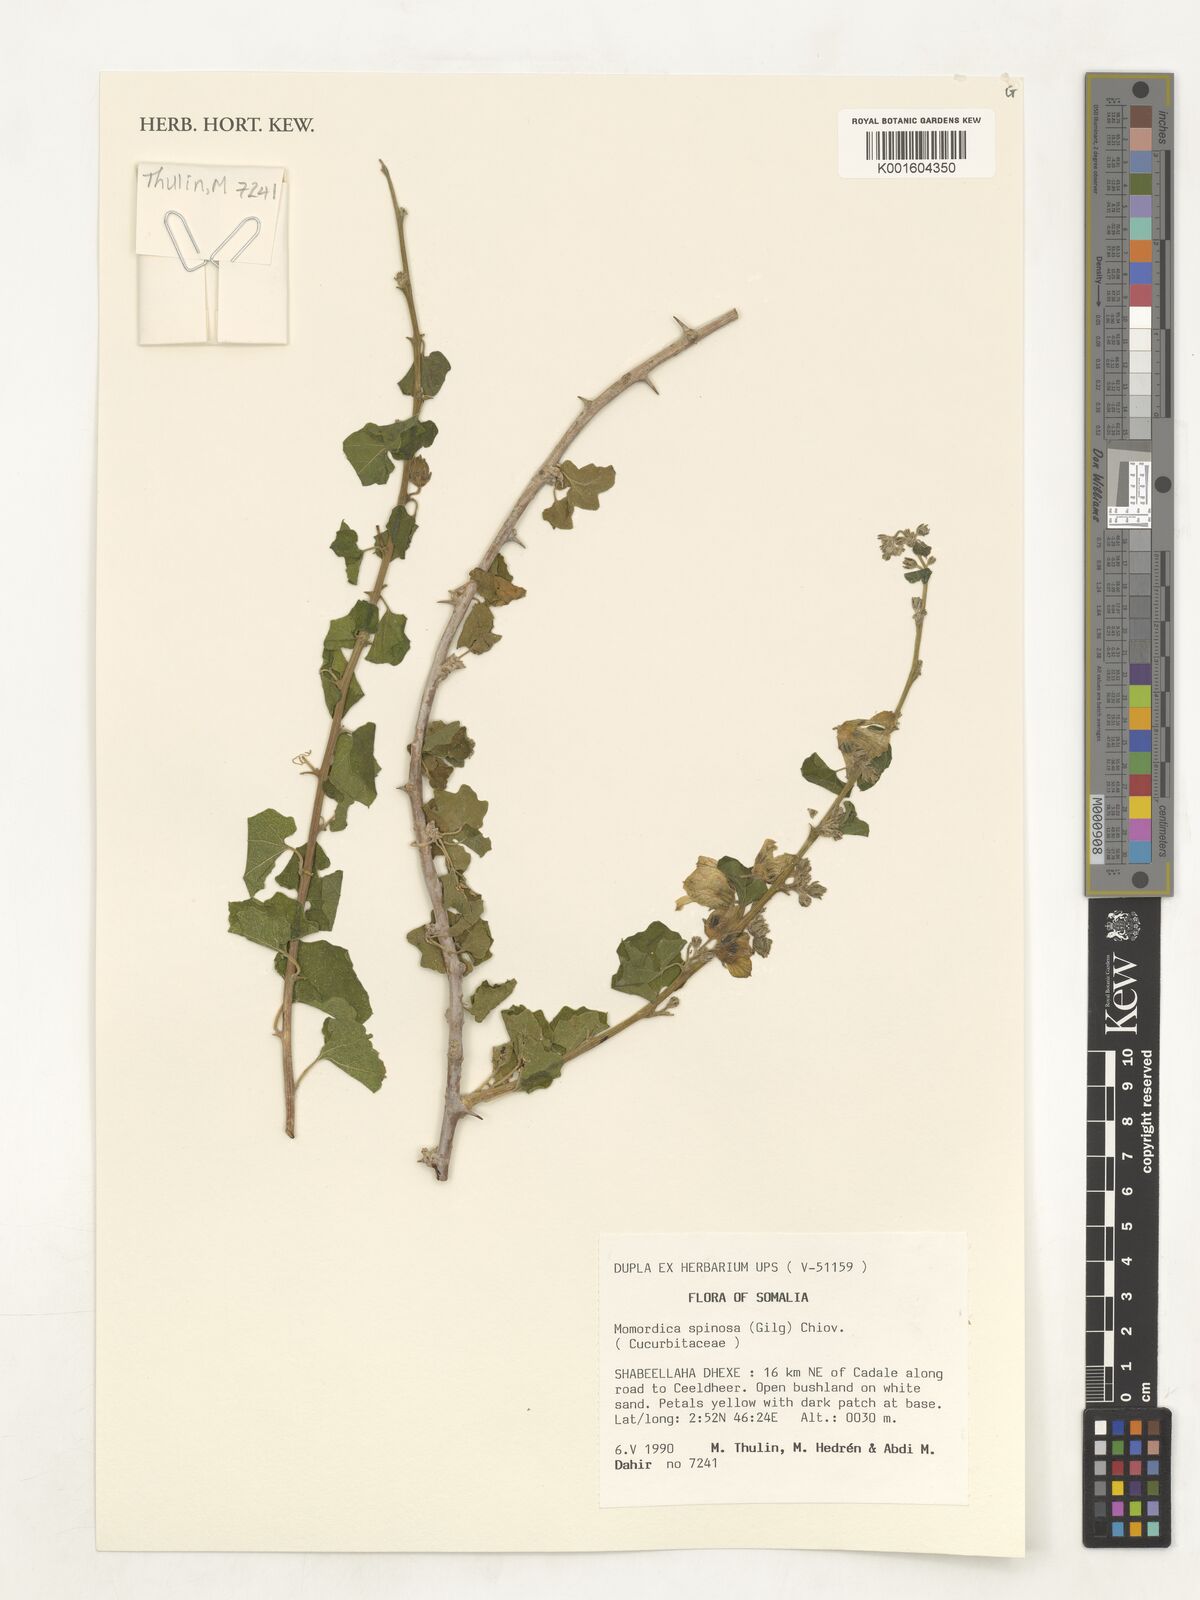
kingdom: Plantae
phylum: Tracheophyta
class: Magnoliopsida
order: Cucurbitales
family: Cucurbitaceae
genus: Momordica
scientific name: Momordica spinosa
